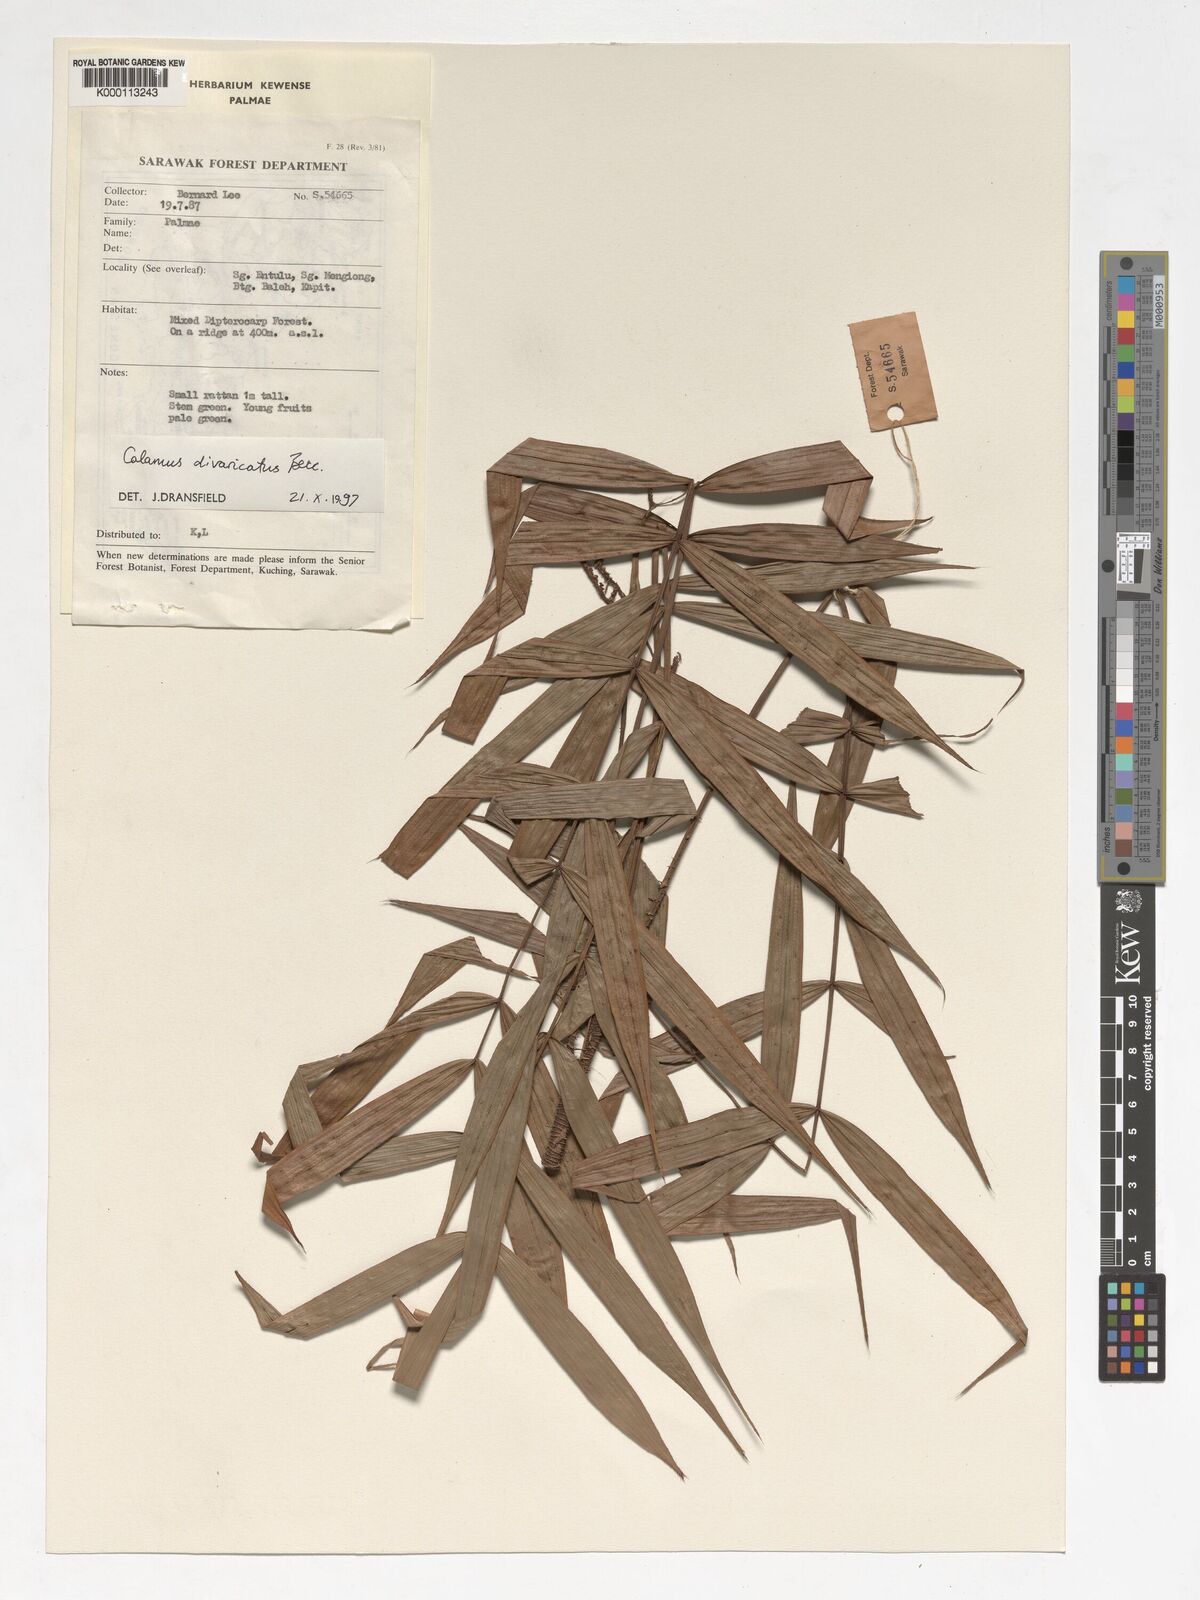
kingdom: Plantae
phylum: Tracheophyta
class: Liliopsida
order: Arecales
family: Arecaceae
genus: Calamus
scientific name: Calamus divaricatus
